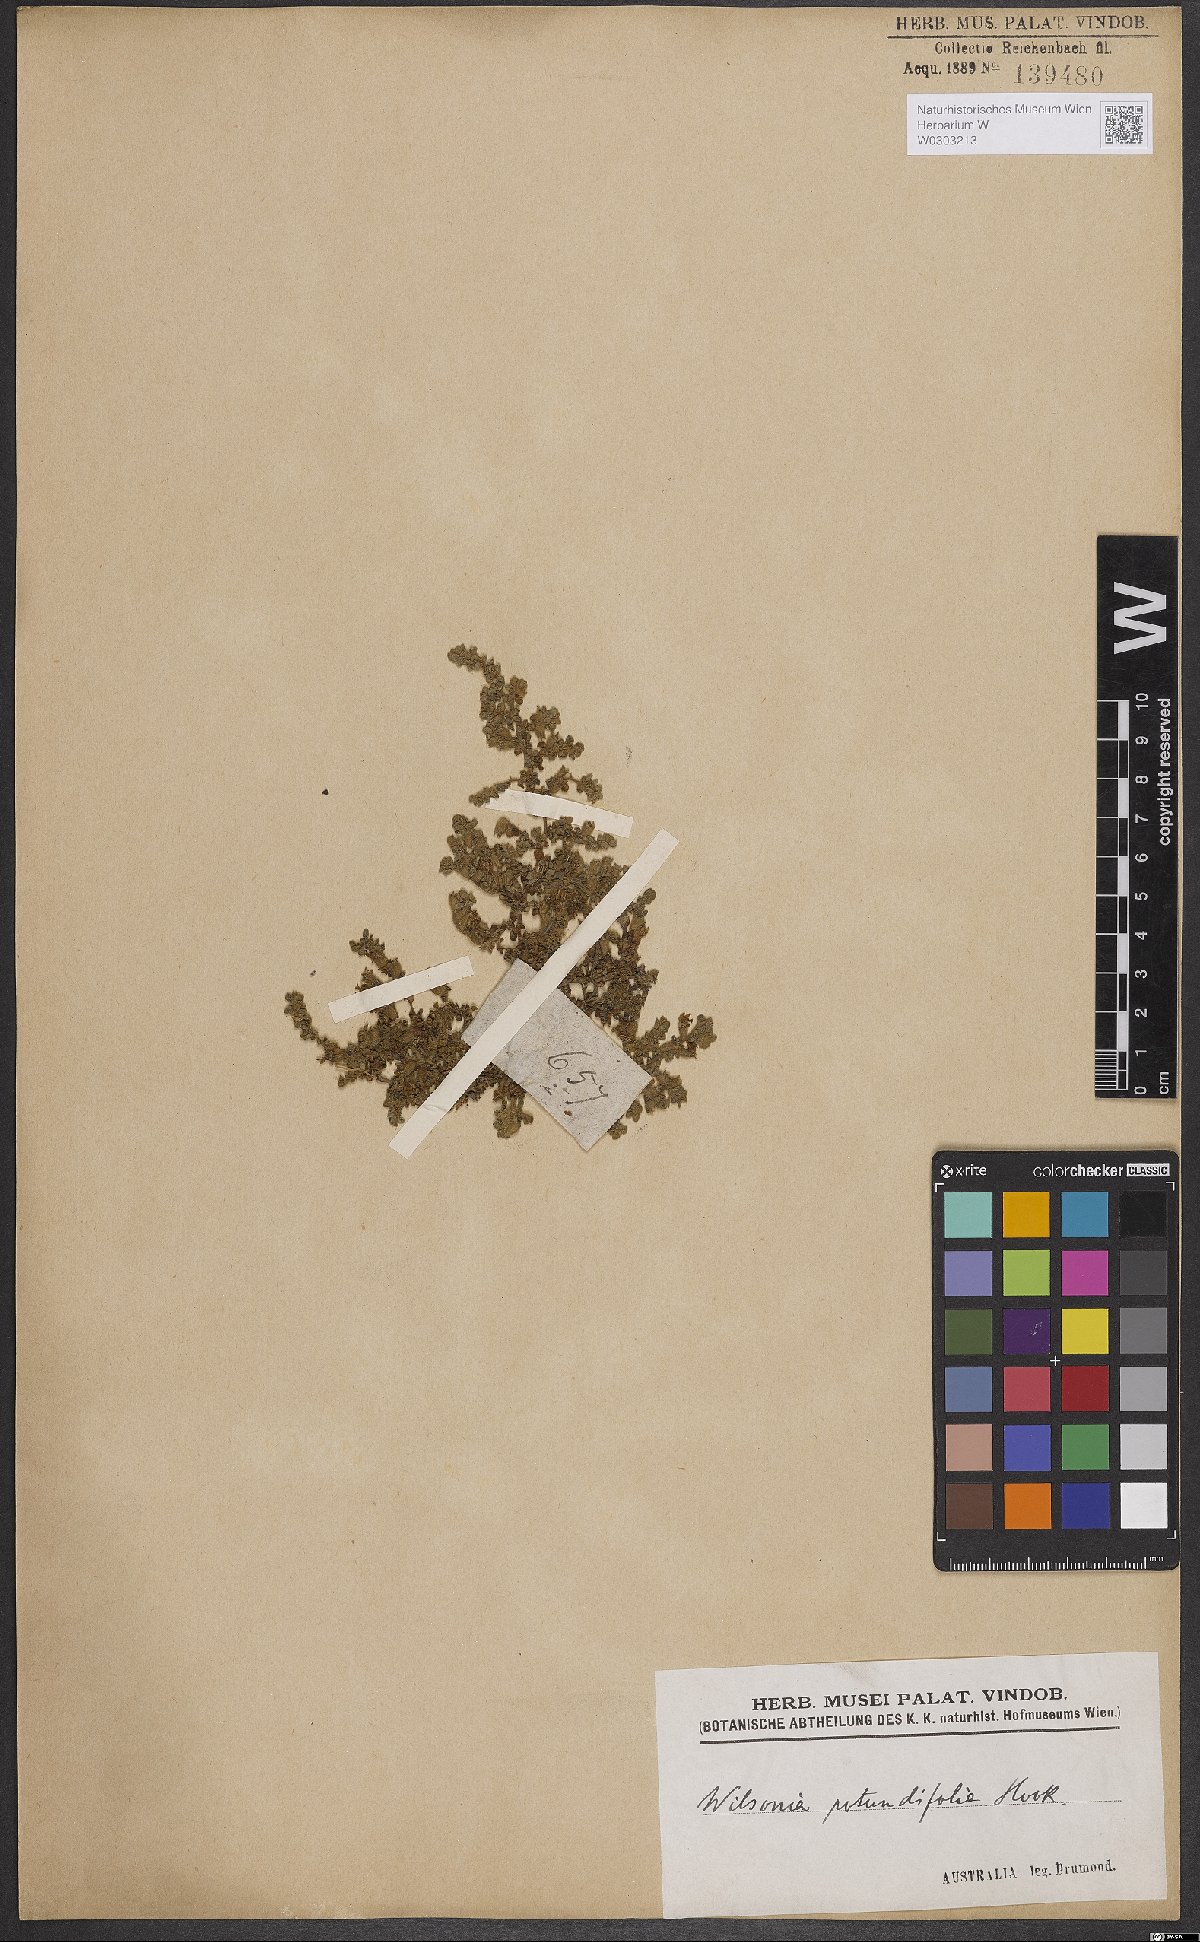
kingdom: Plantae
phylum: Tracheophyta
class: Magnoliopsida
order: Solanales
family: Convolvulaceae
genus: Wilsonia
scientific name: Wilsonia rotundifolia
